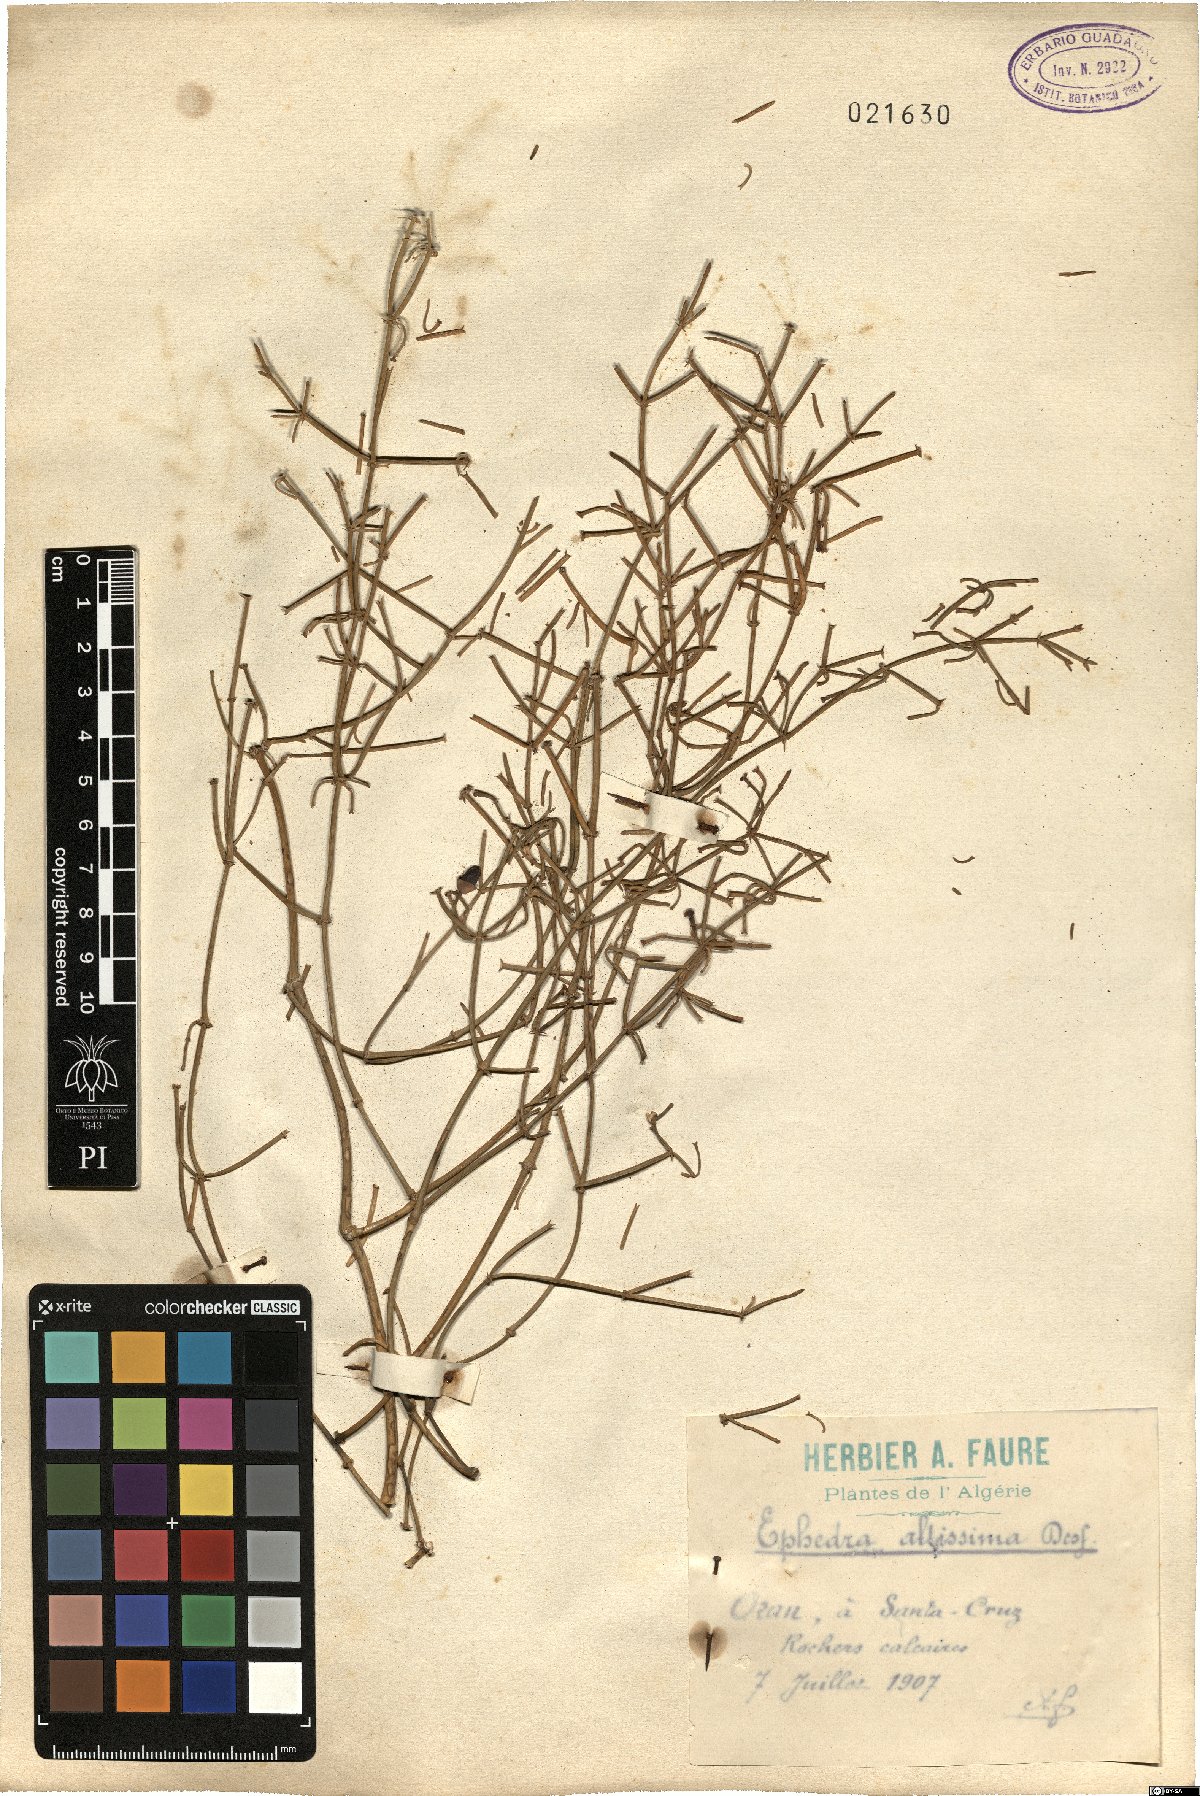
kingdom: Plantae
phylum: Tracheophyta
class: Gnetopsida
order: Ephedrales
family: Ephedraceae
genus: Ephedra
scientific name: Ephedra altissima
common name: High-climbing jointfir
